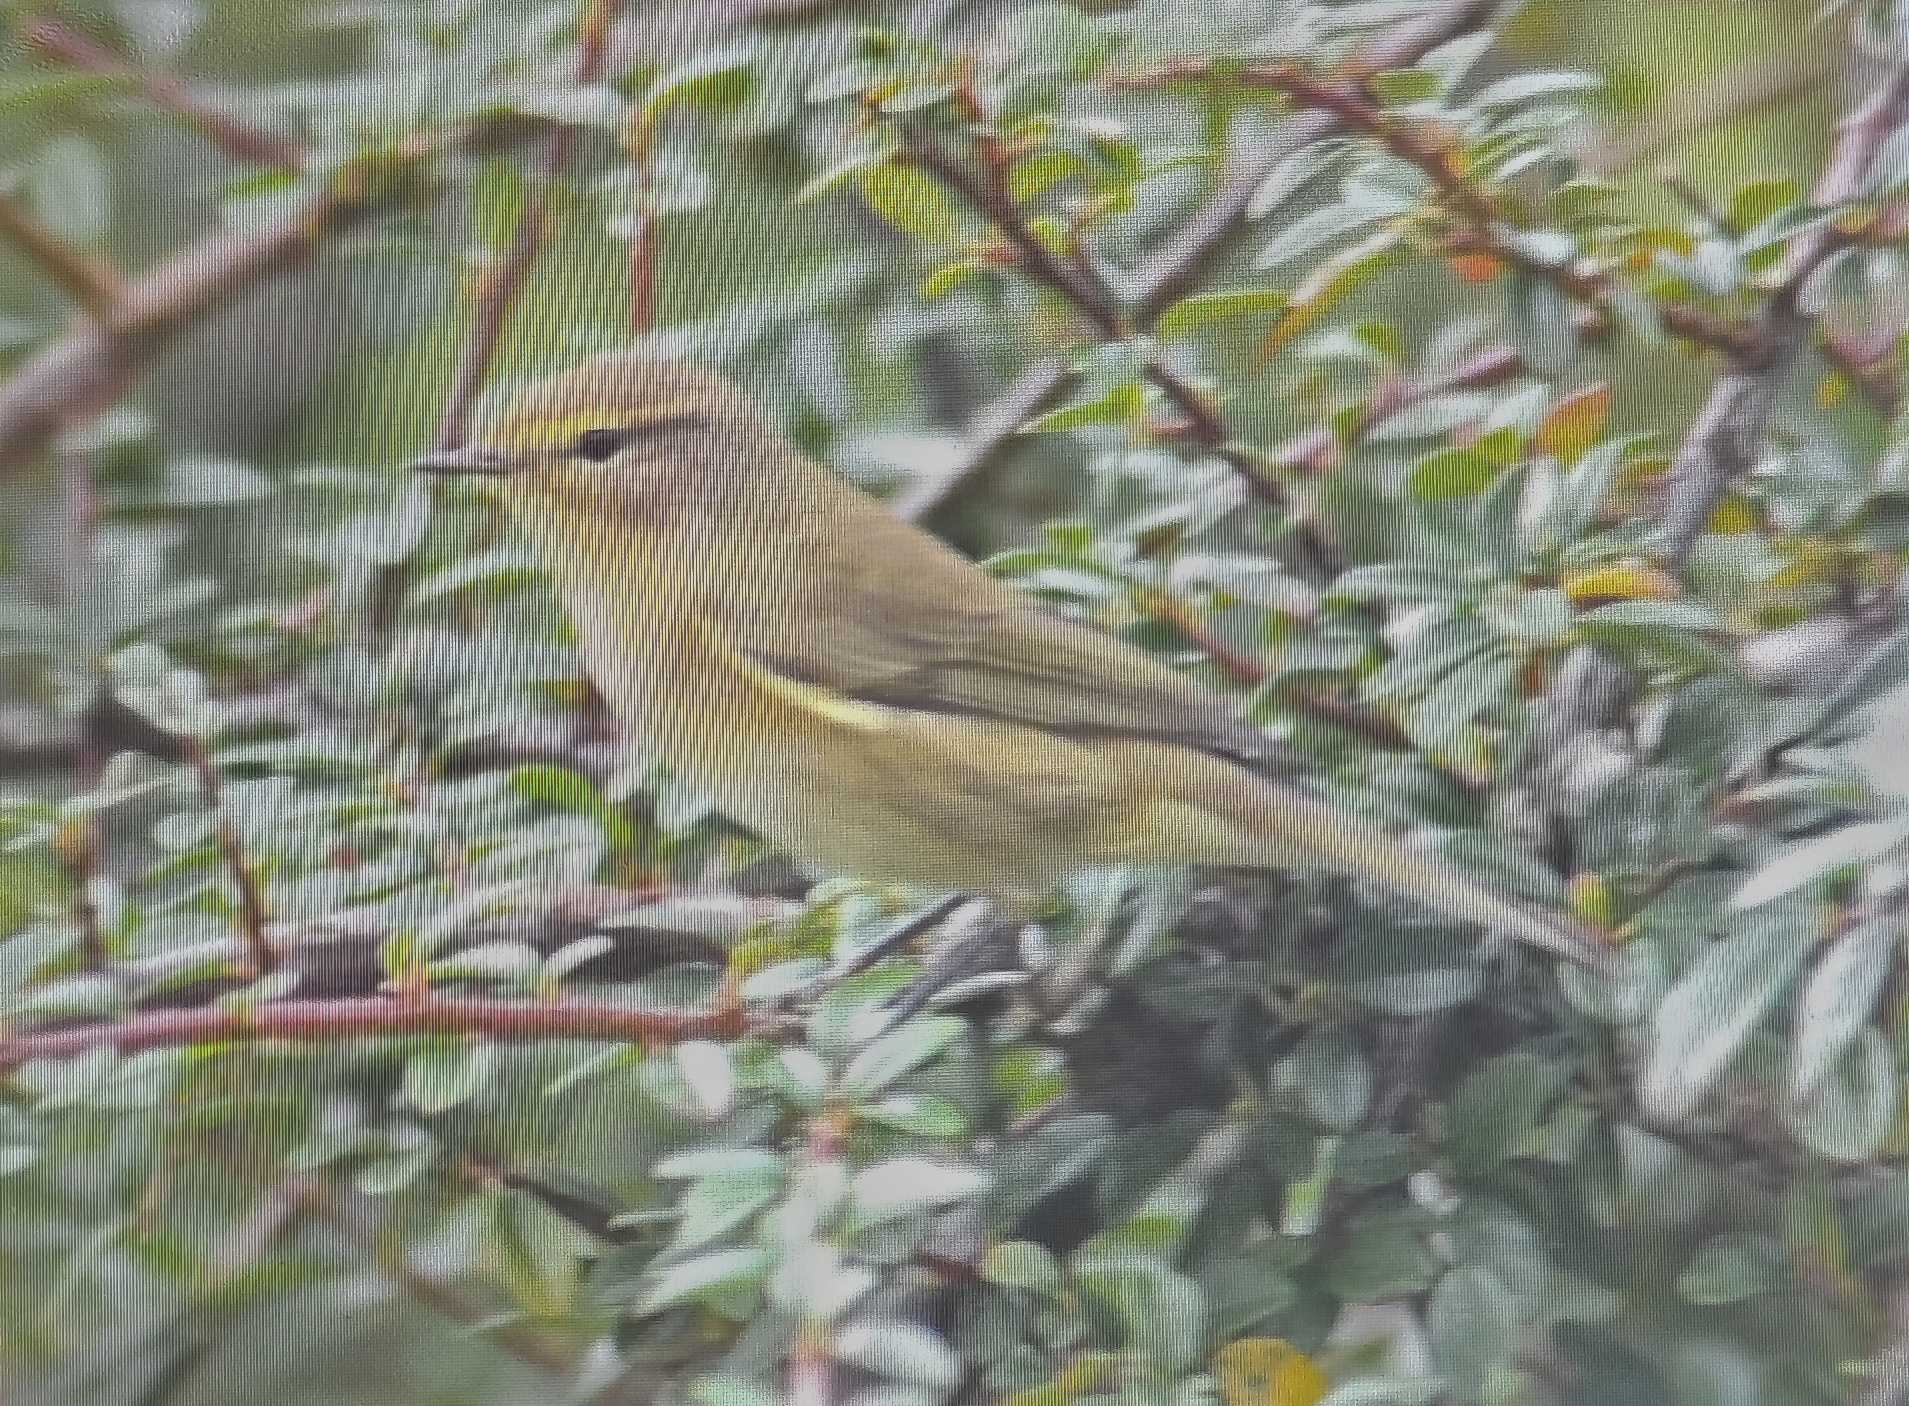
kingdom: Animalia
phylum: Chordata
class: Aves
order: Passeriformes
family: Phylloscopidae
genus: Phylloscopus
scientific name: Phylloscopus collybita
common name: Gransanger
